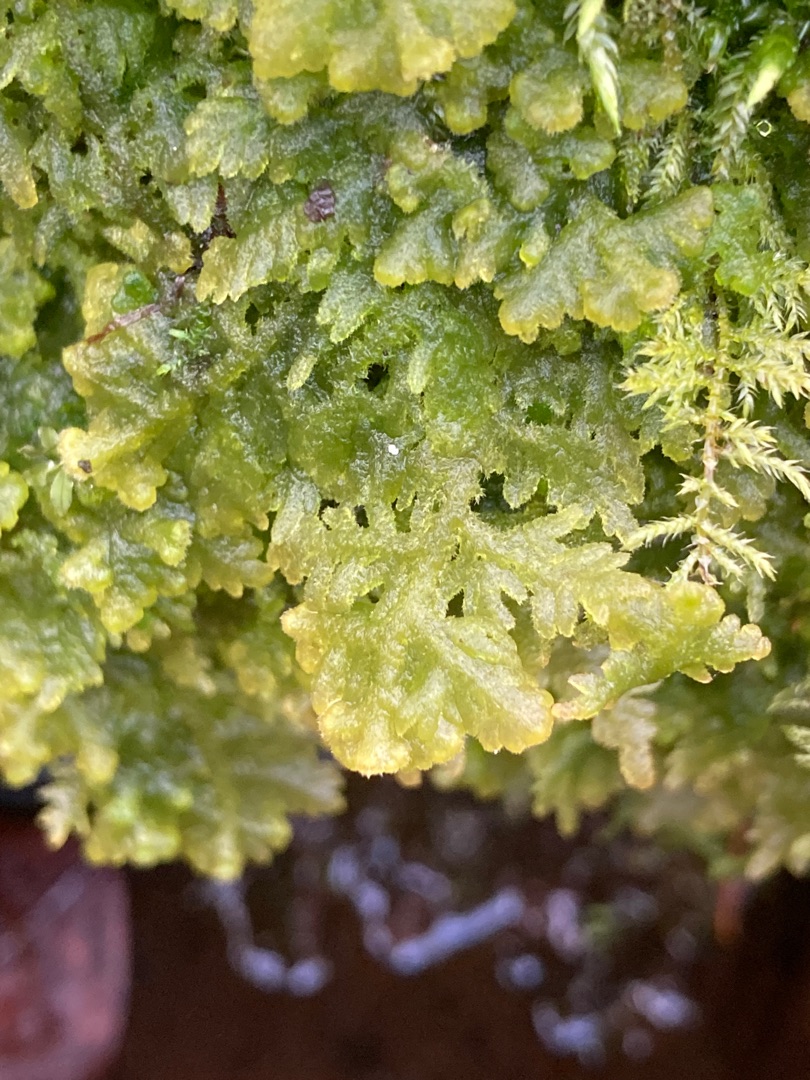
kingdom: Plantae
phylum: Marchantiophyta
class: Jungermanniopsida
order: Jungermanniales
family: Trichocoleaceae
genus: Trichocolea
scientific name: Trichocolea tomentella
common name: Bleg dunmos
